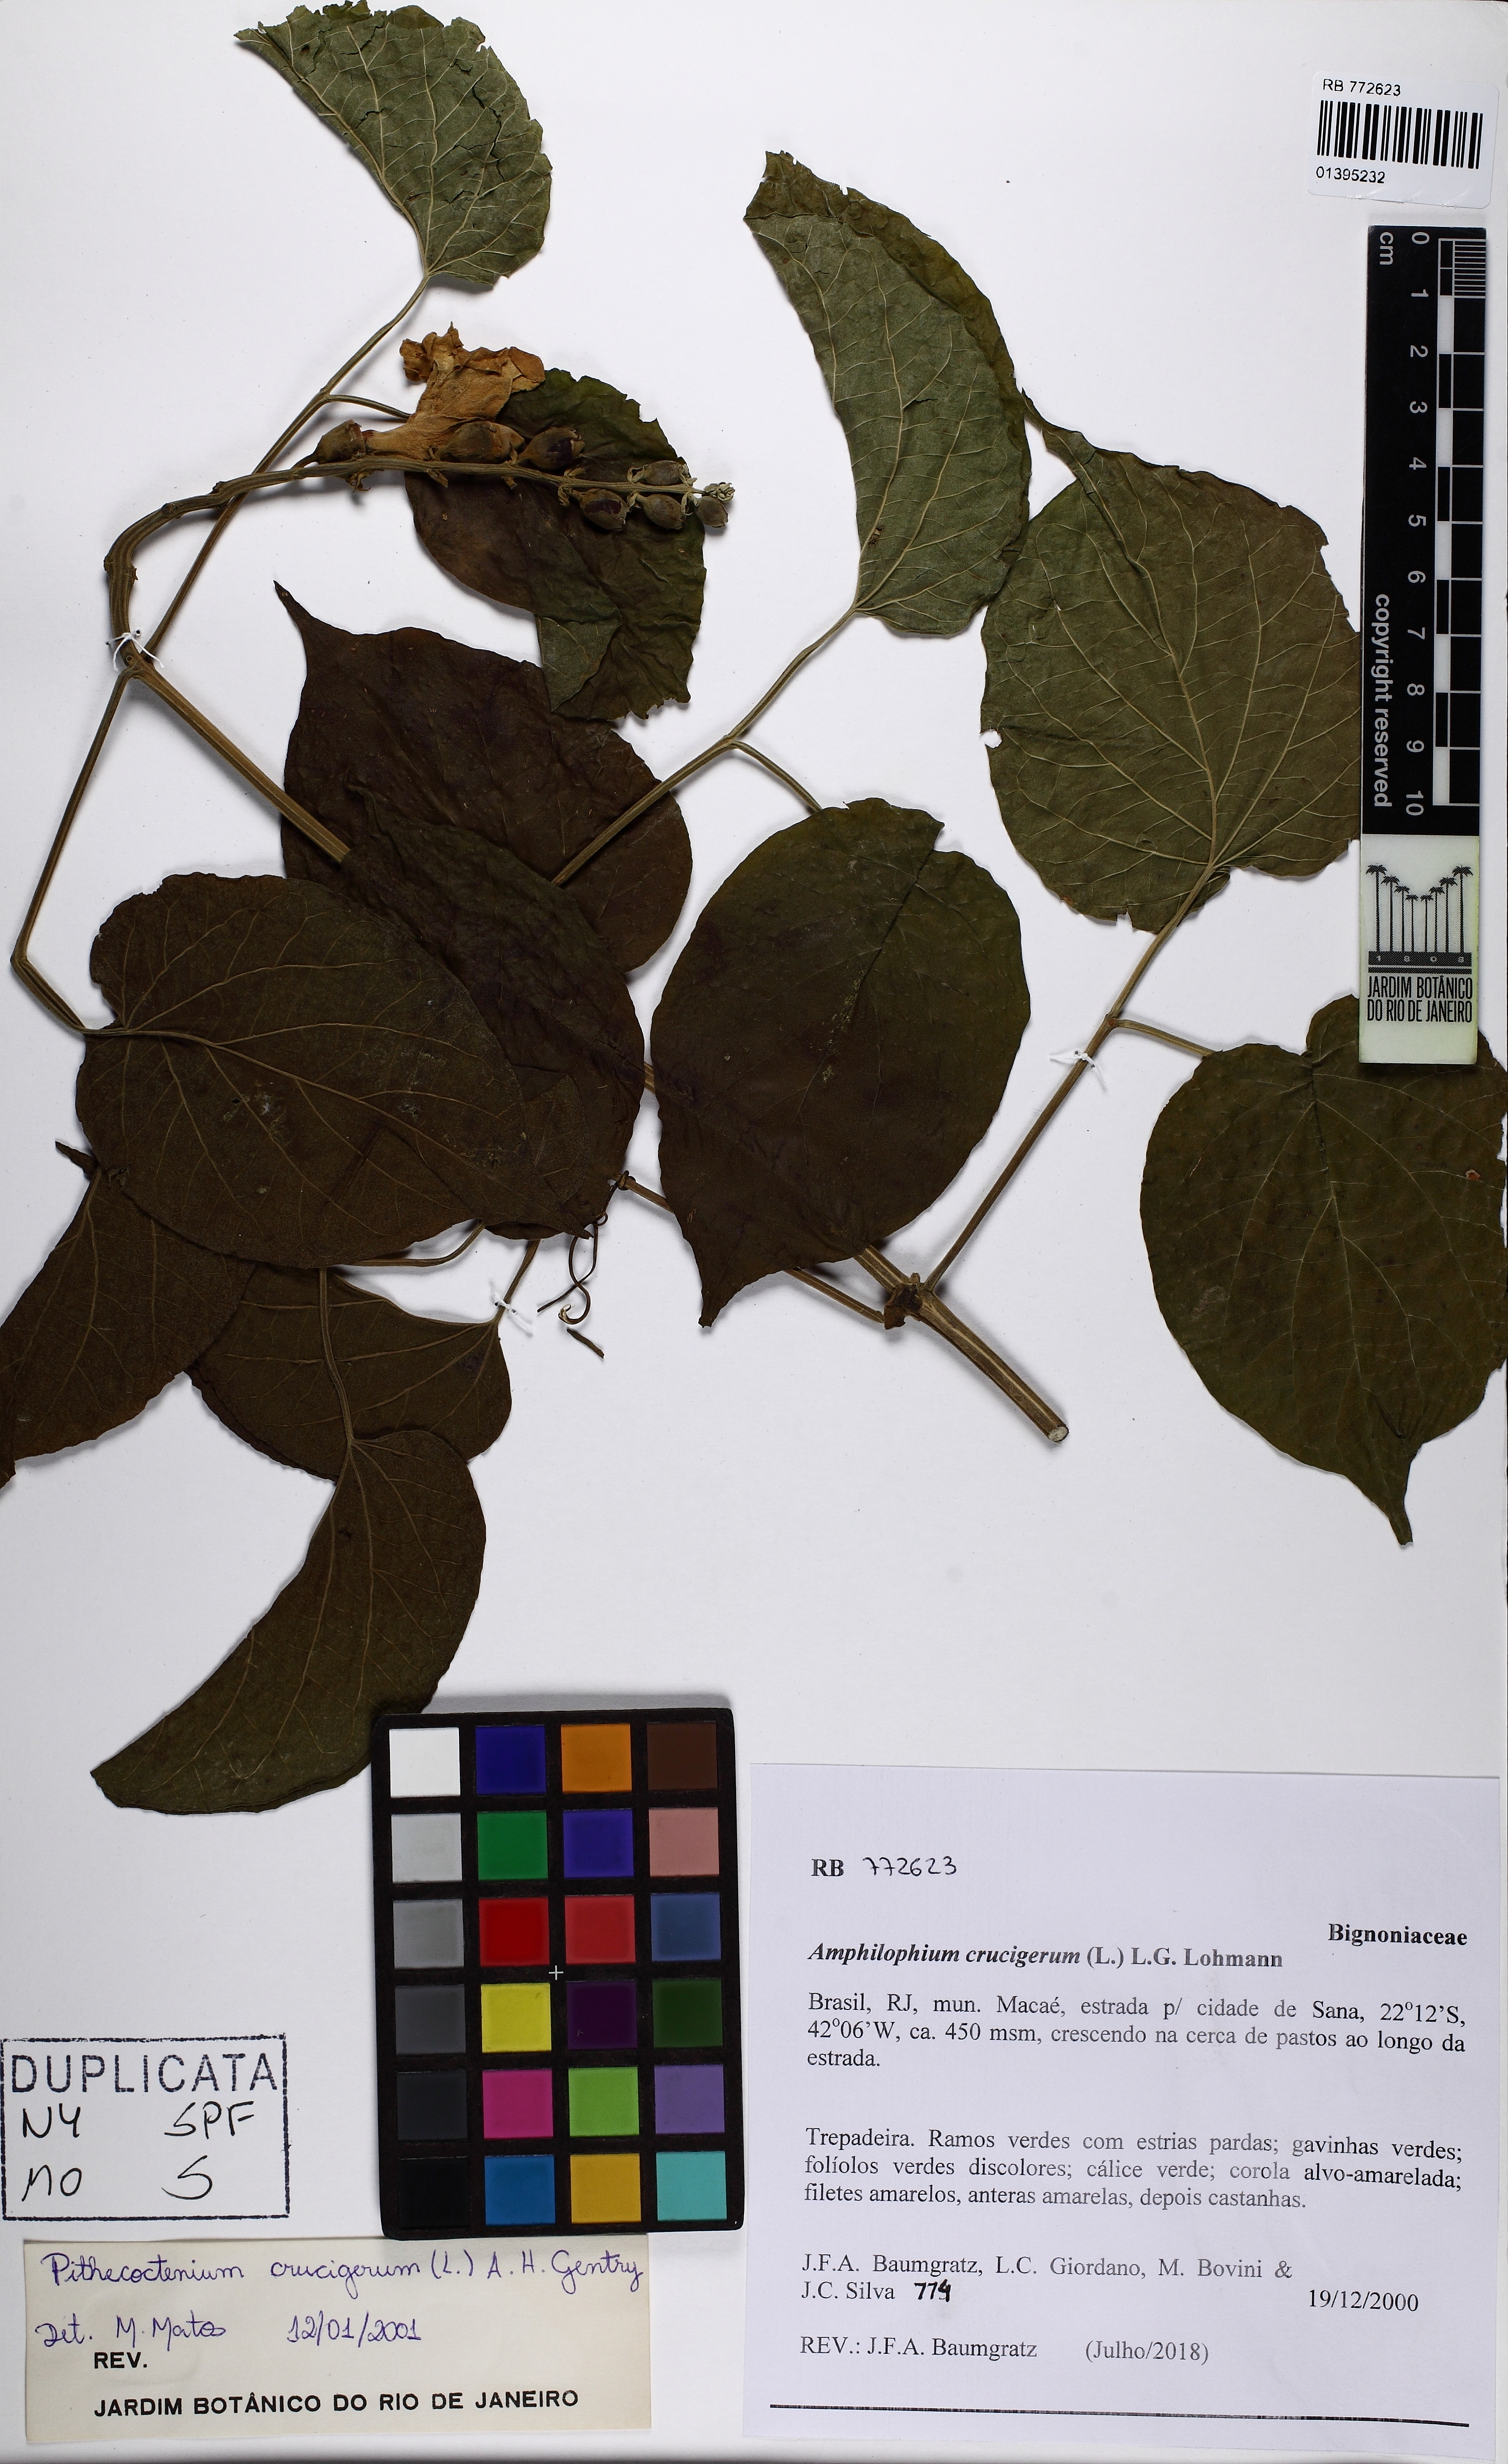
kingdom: Plantae
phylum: Tracheophyta
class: Magnoliopsida
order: Lamiales
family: Bignoniaceae
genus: Amphilophium
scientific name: Amphilophium crucigerum
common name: Monkey comb
